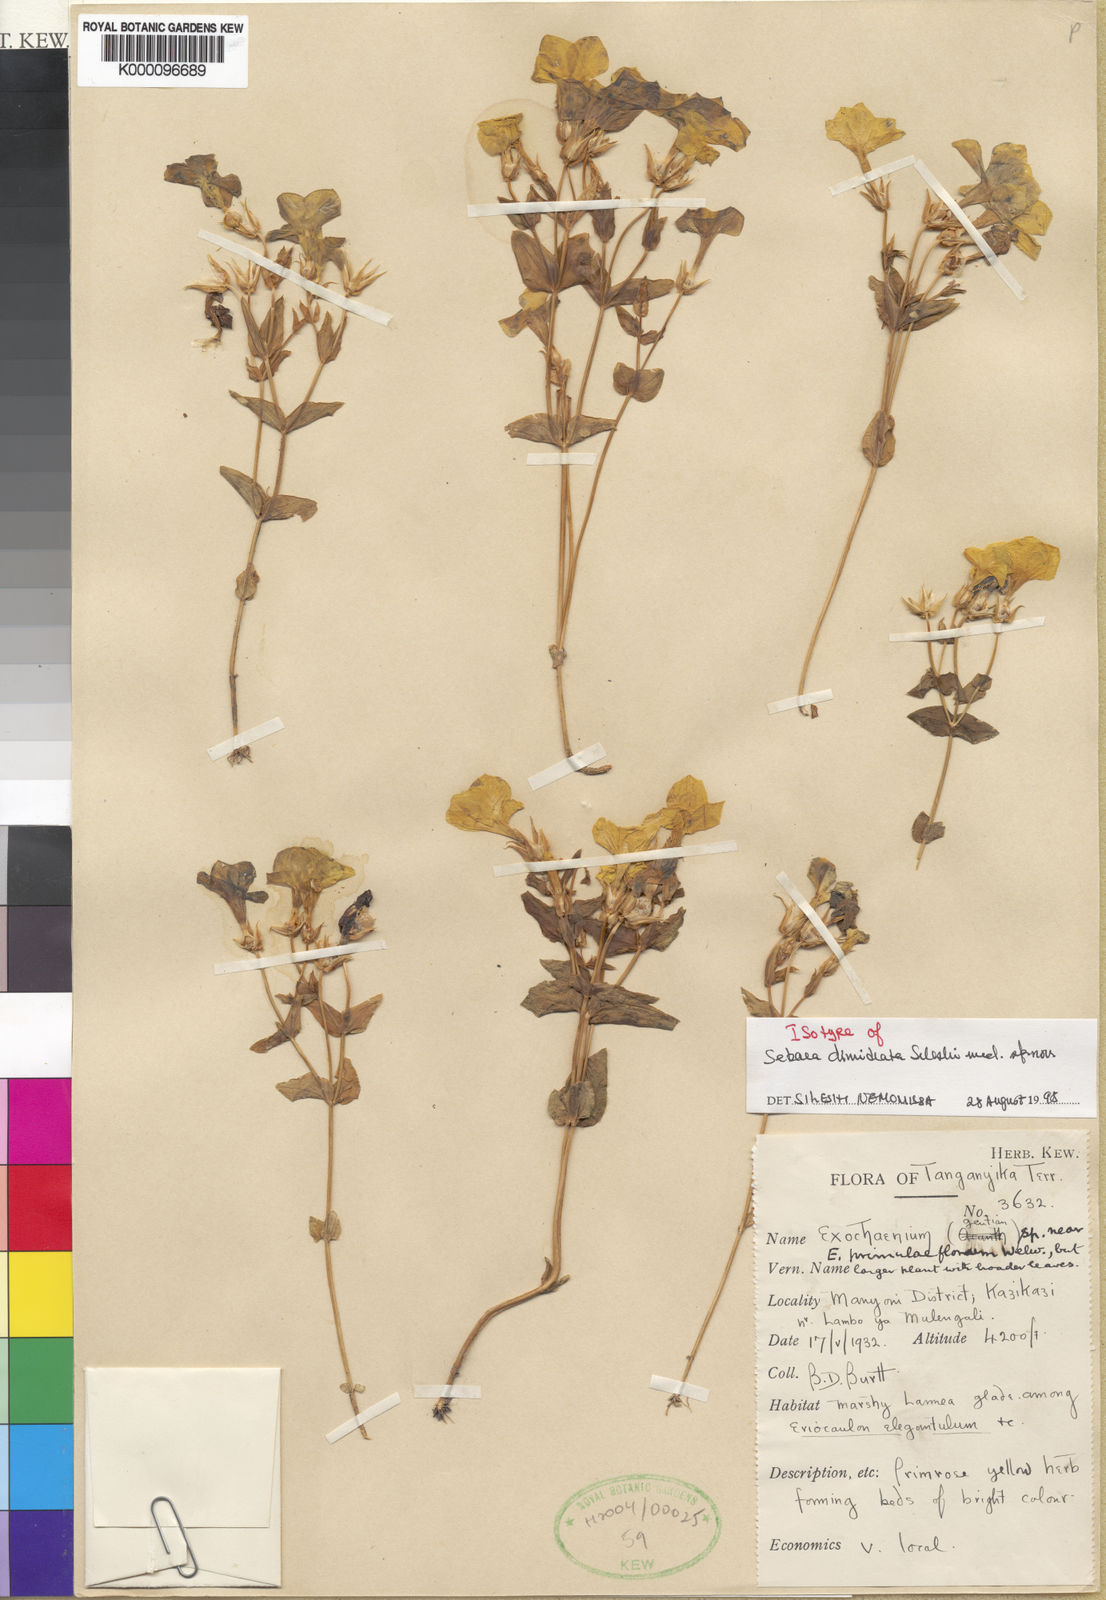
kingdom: Plantae
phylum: Tracheophyta
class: Magnoliopsida
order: Gentianales
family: Gentianaceae
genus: Sebaea
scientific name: Sebaea
